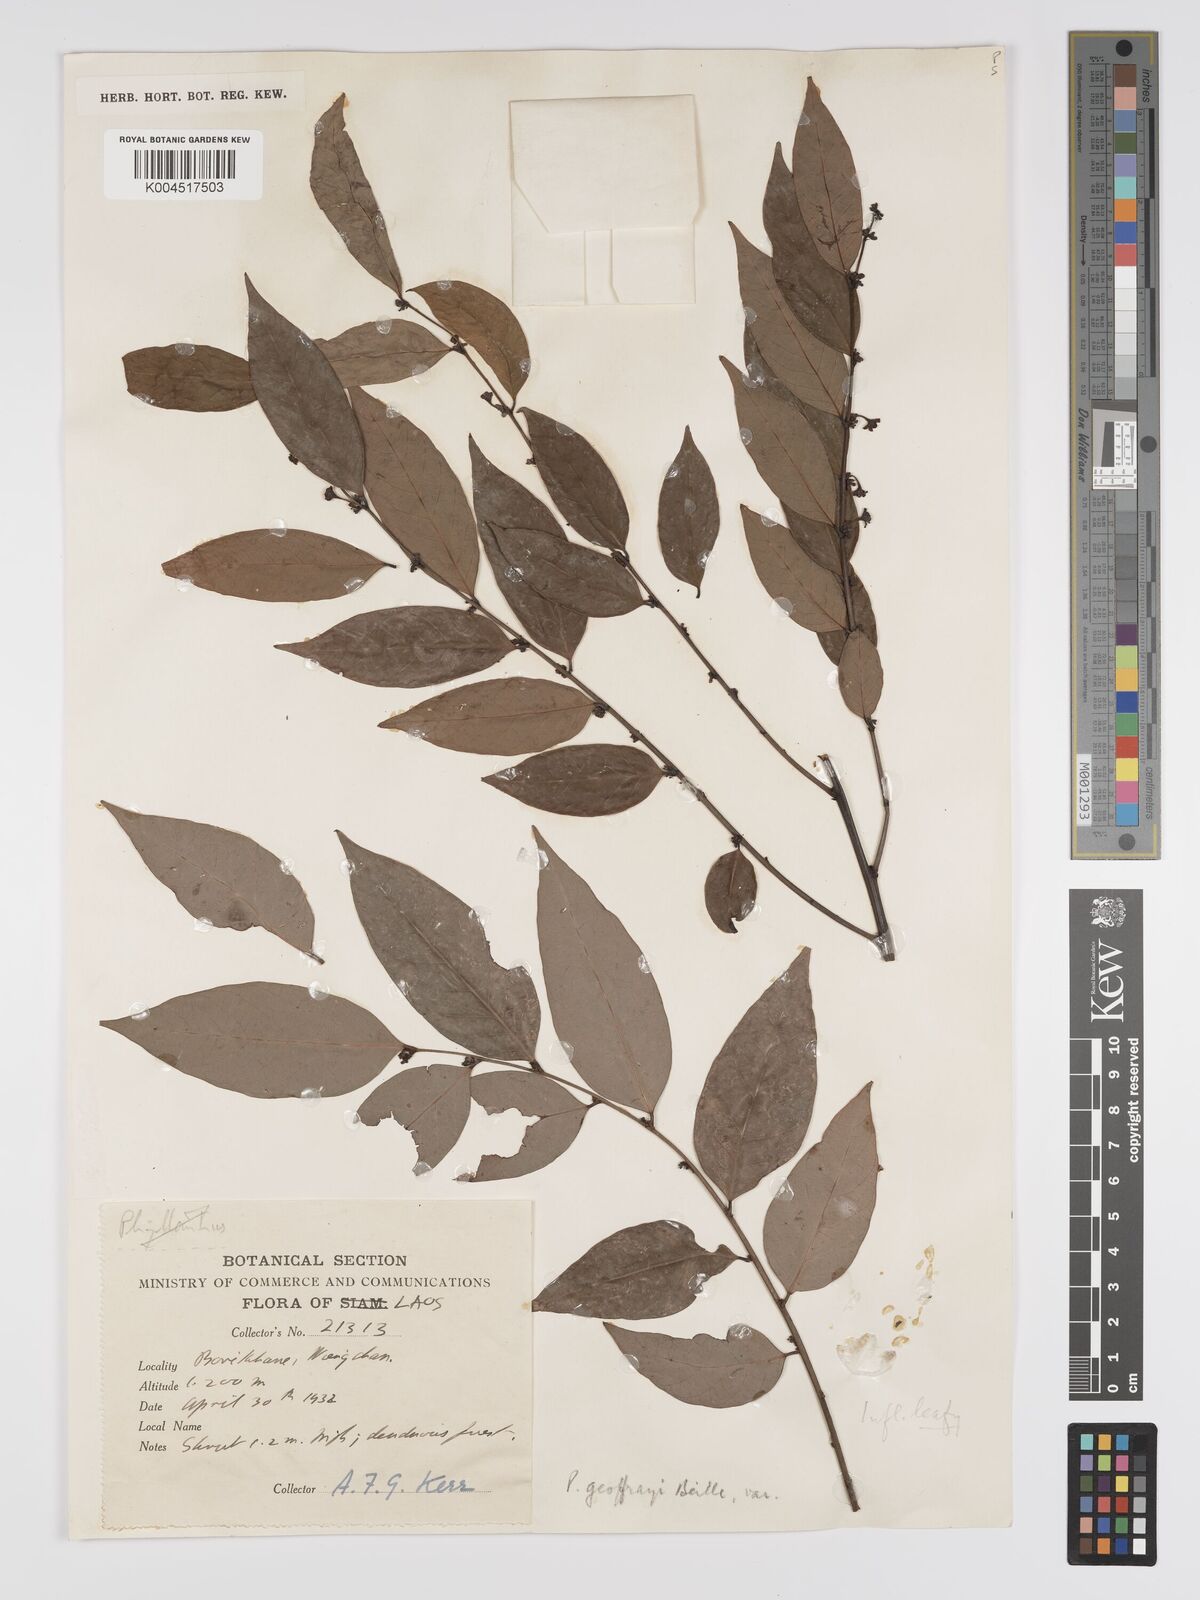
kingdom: Plantae
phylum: Tracheophyta
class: Magnoliopsida
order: Malpighiales
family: Phyllanthaceae
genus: Phyllanthus
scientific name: Phyllanthus geoffrayi
